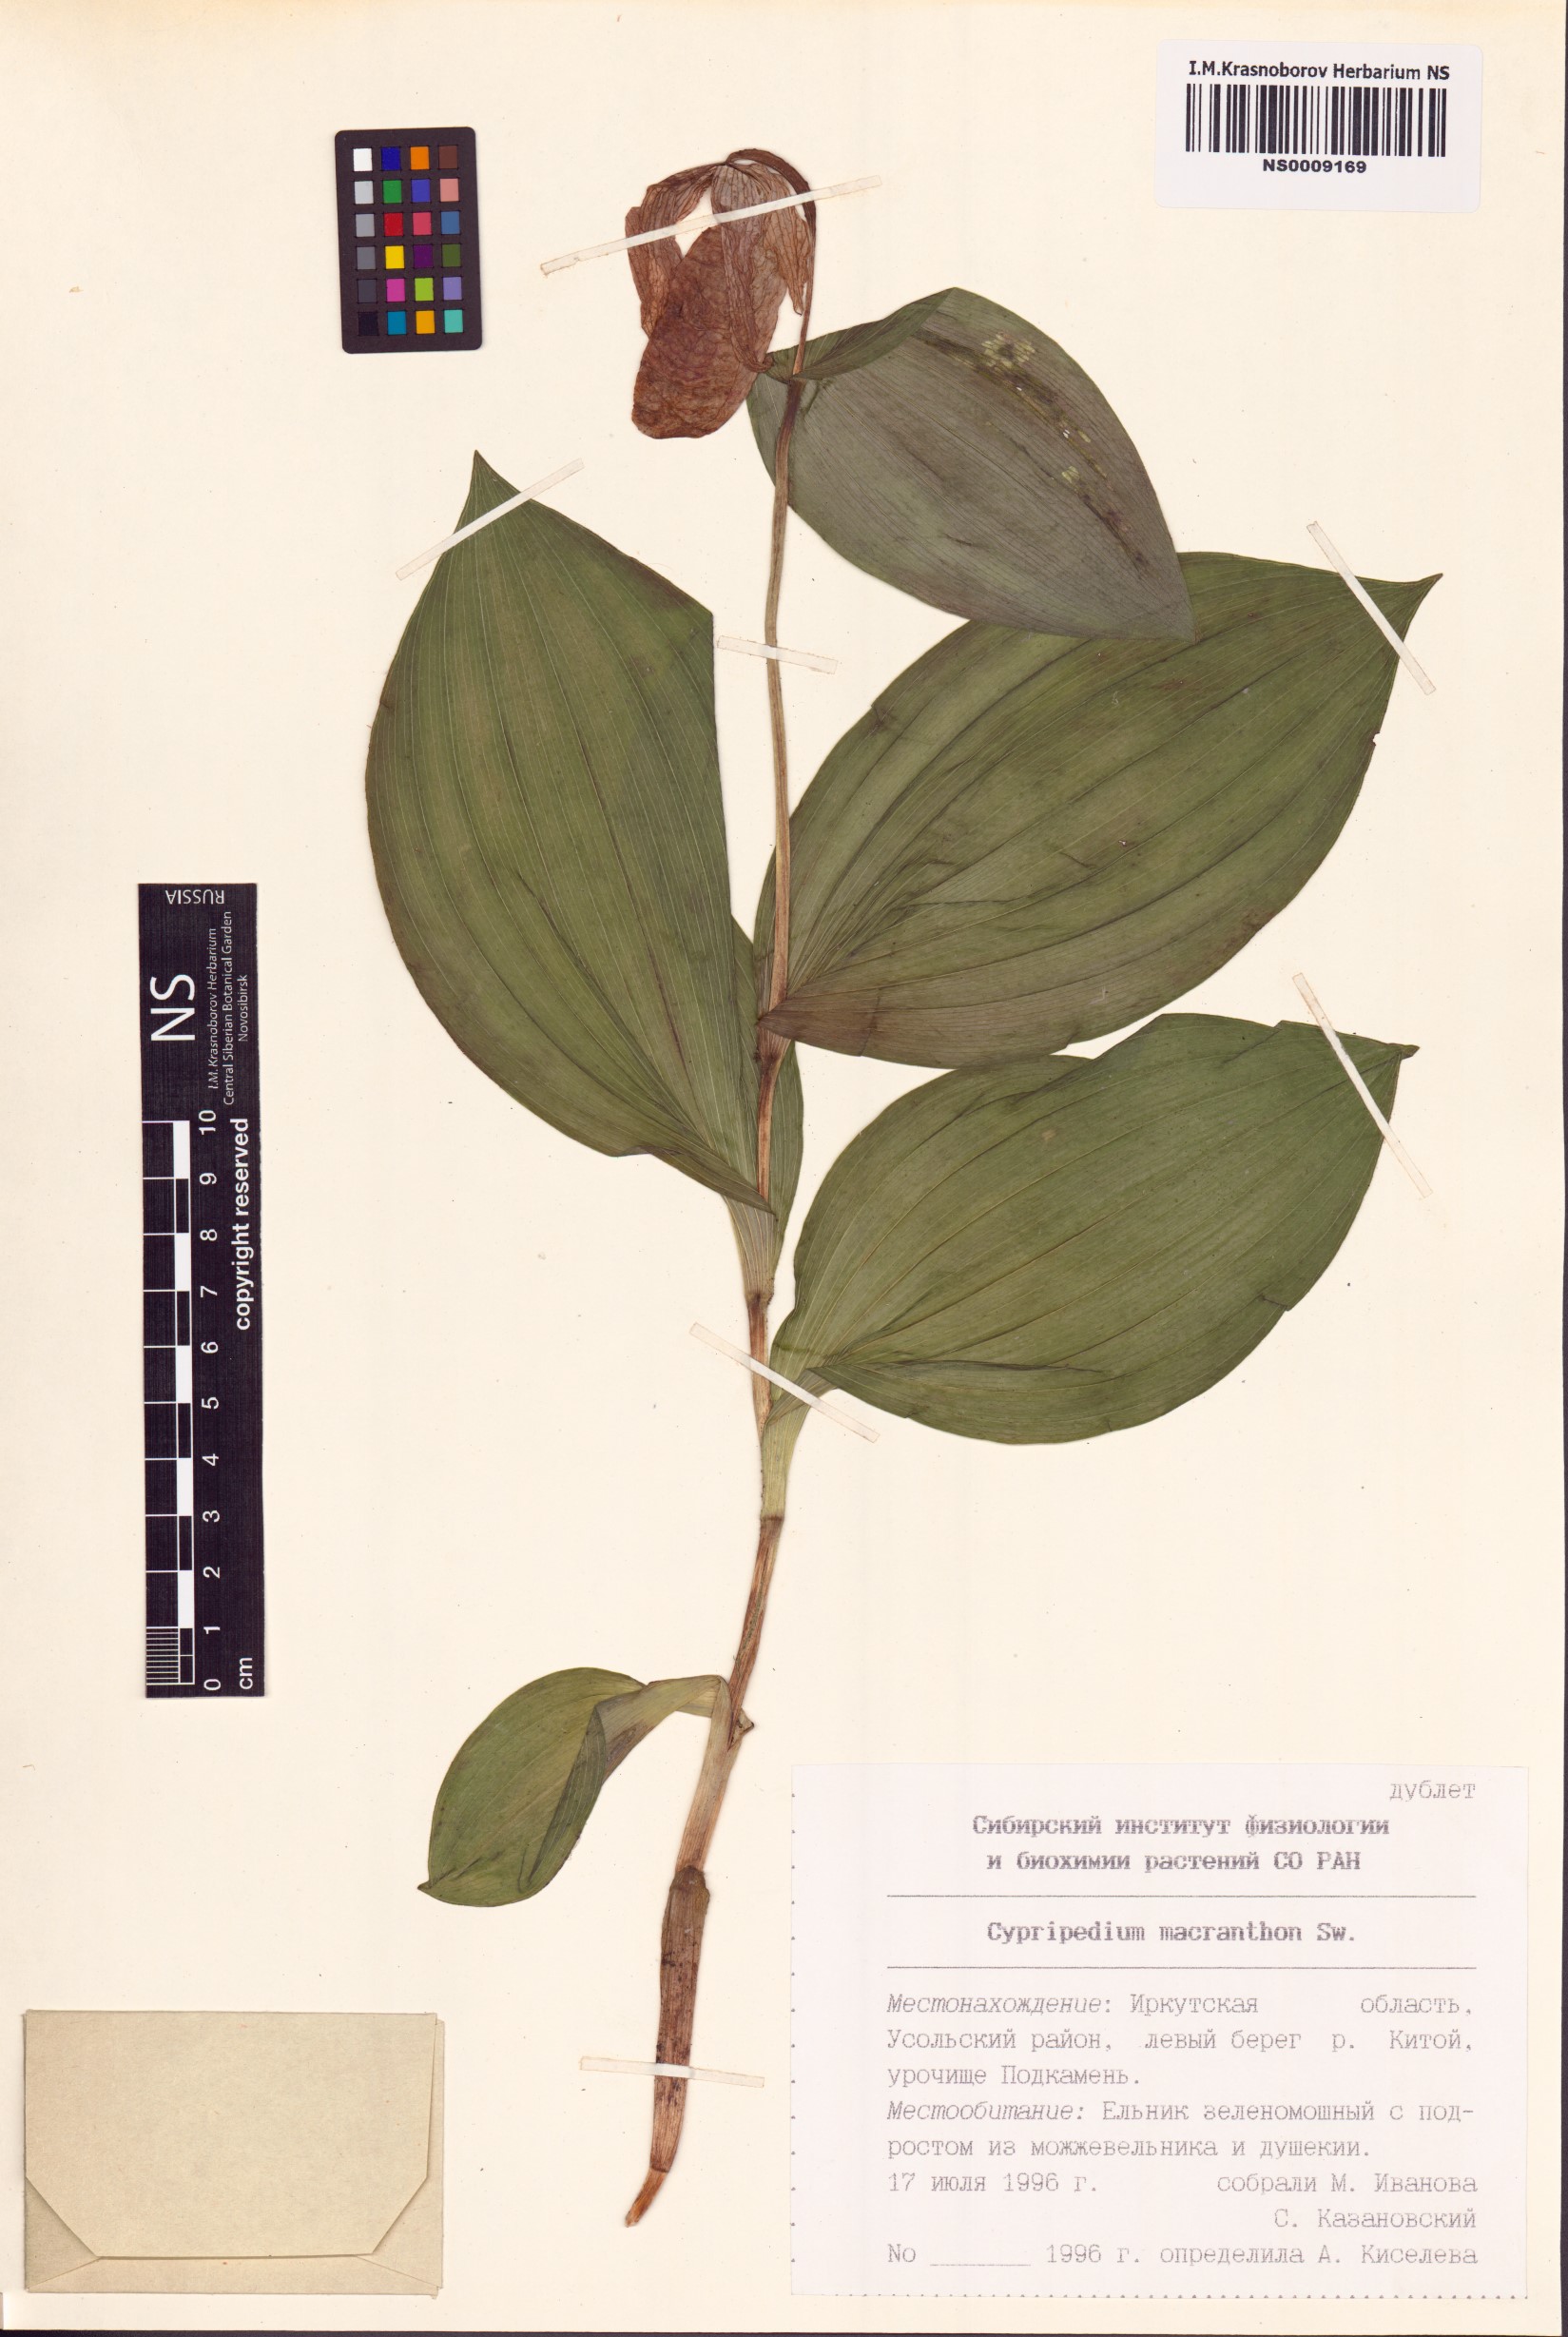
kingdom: Plantae
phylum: Tracheophyta
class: Liliopsida
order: Asparagales
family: Orchidaceae
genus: Cypripedium
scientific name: Cypripedium macranthos
